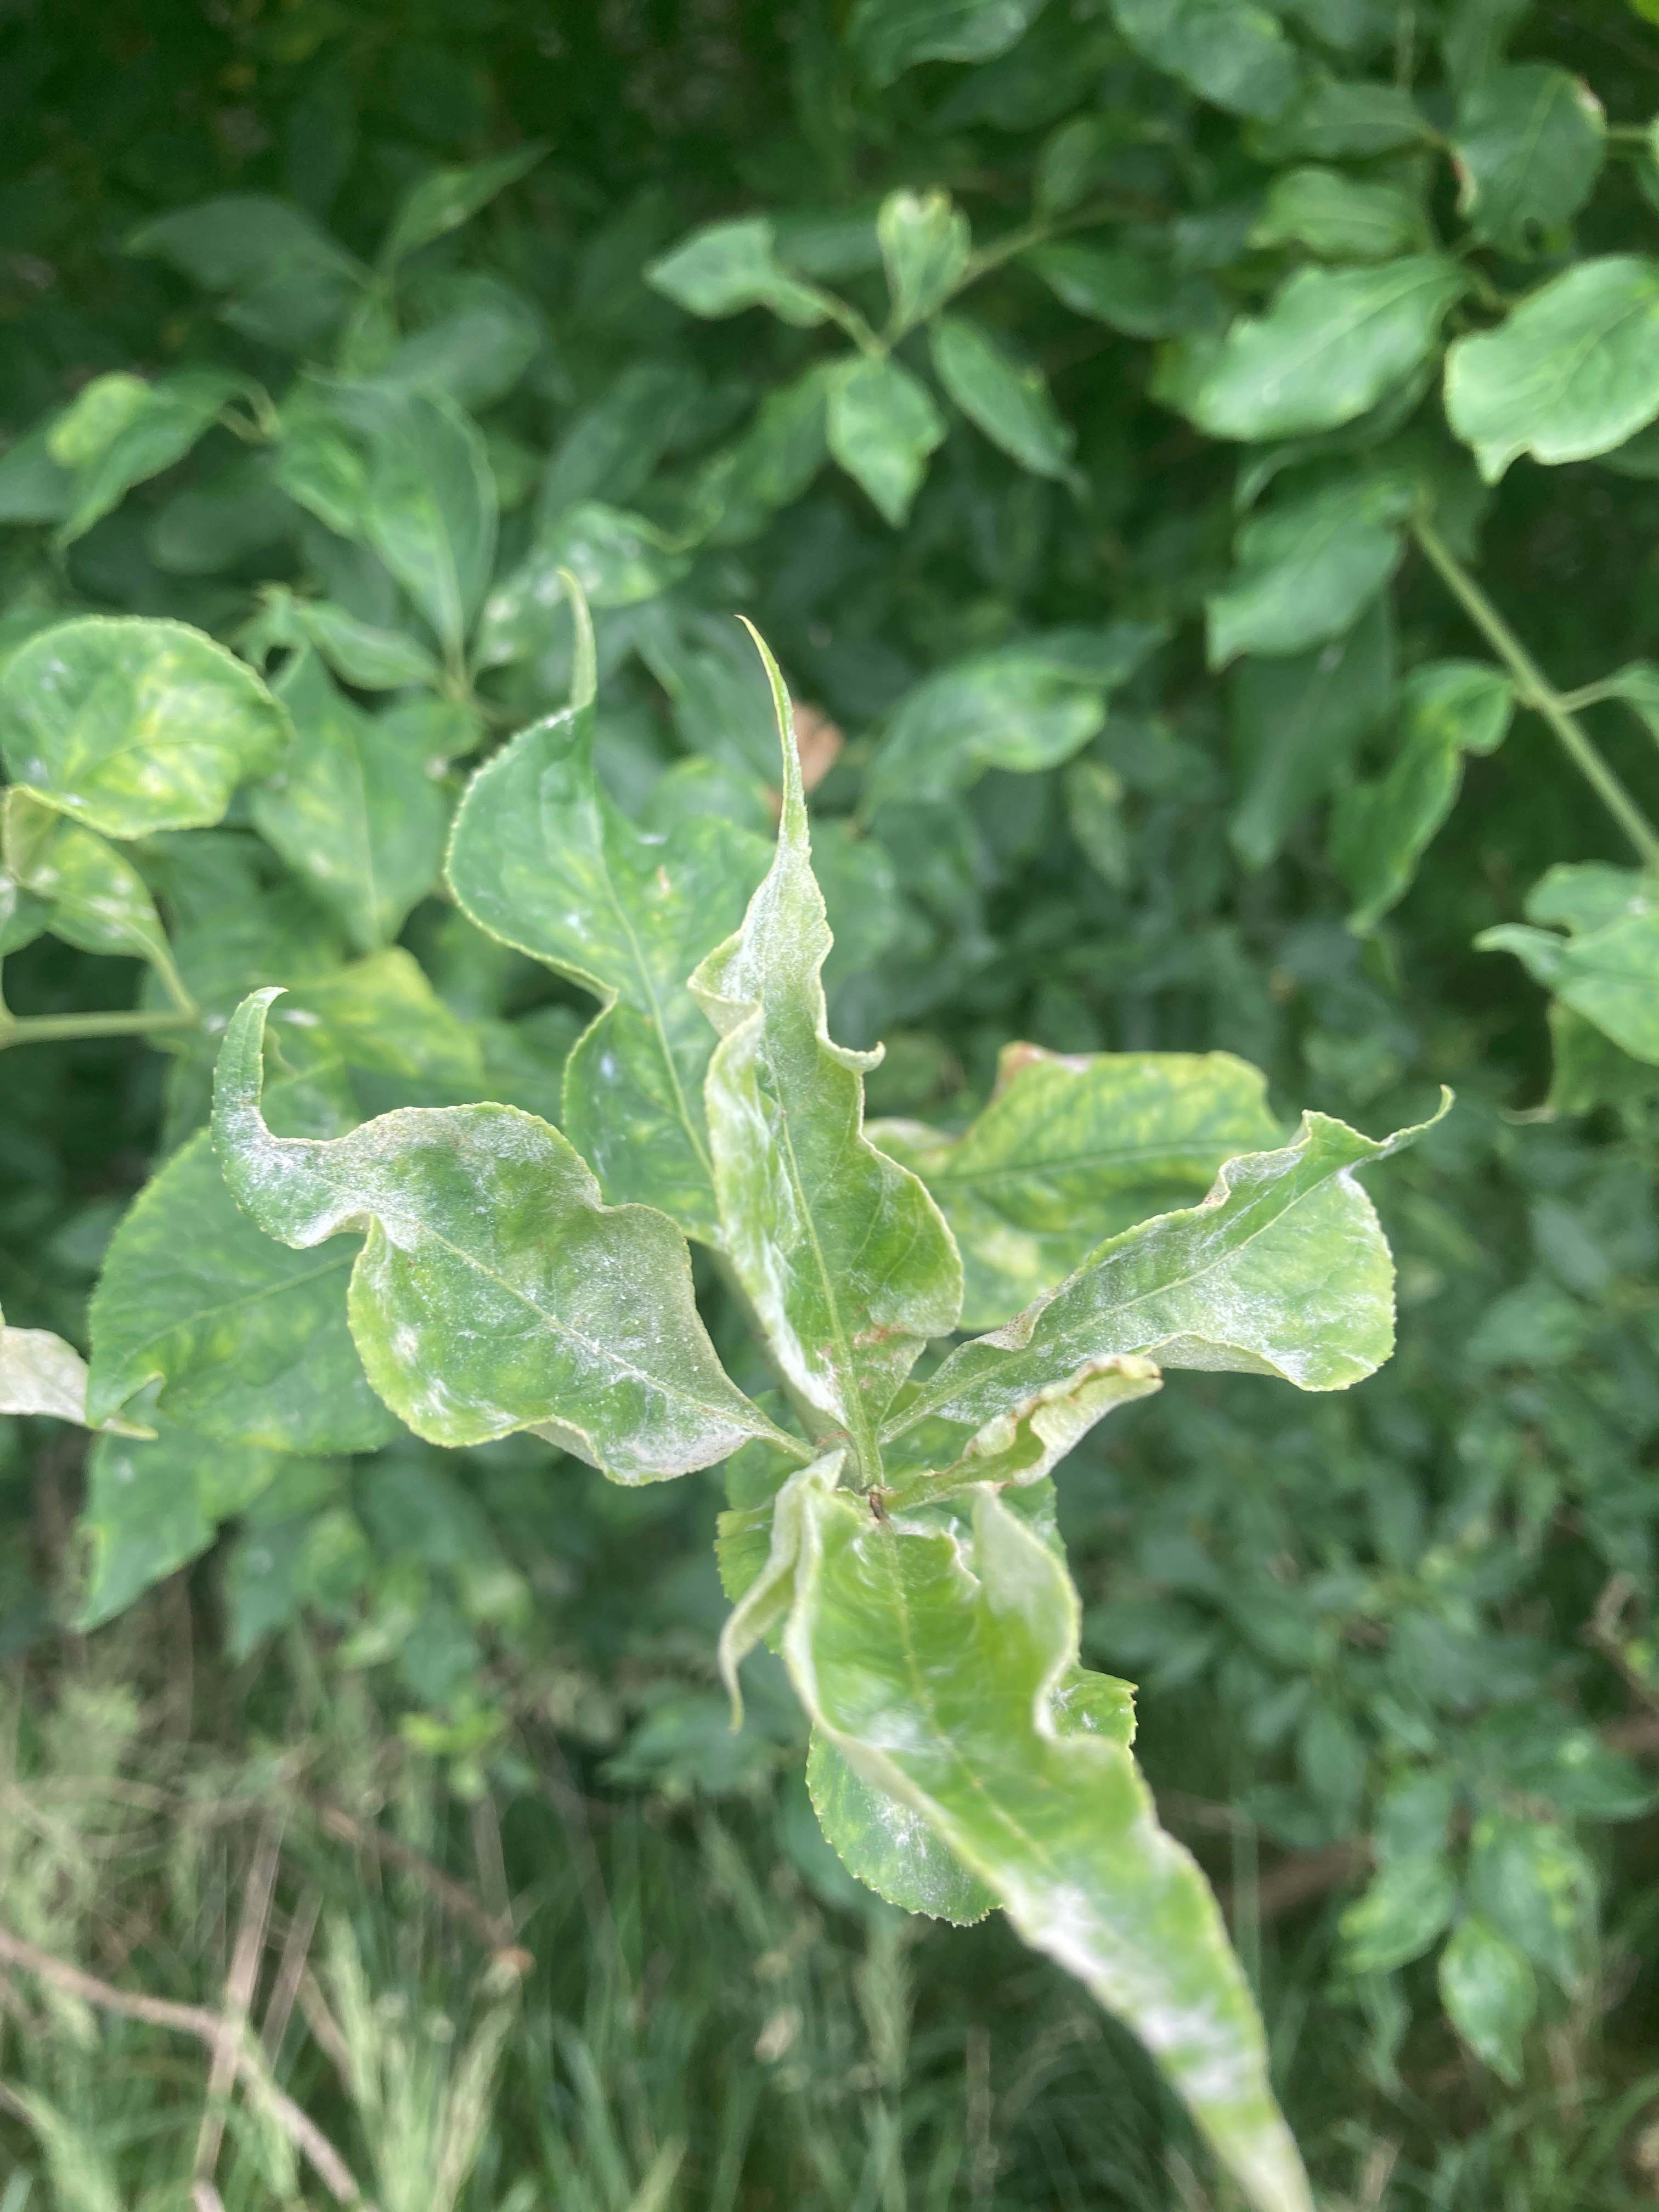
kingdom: Fungi
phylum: Ascomycota
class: Leotiomycetes
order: Helotiales
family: Erysiphaceae
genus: Erysiphe
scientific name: Erysiphe euonymi
